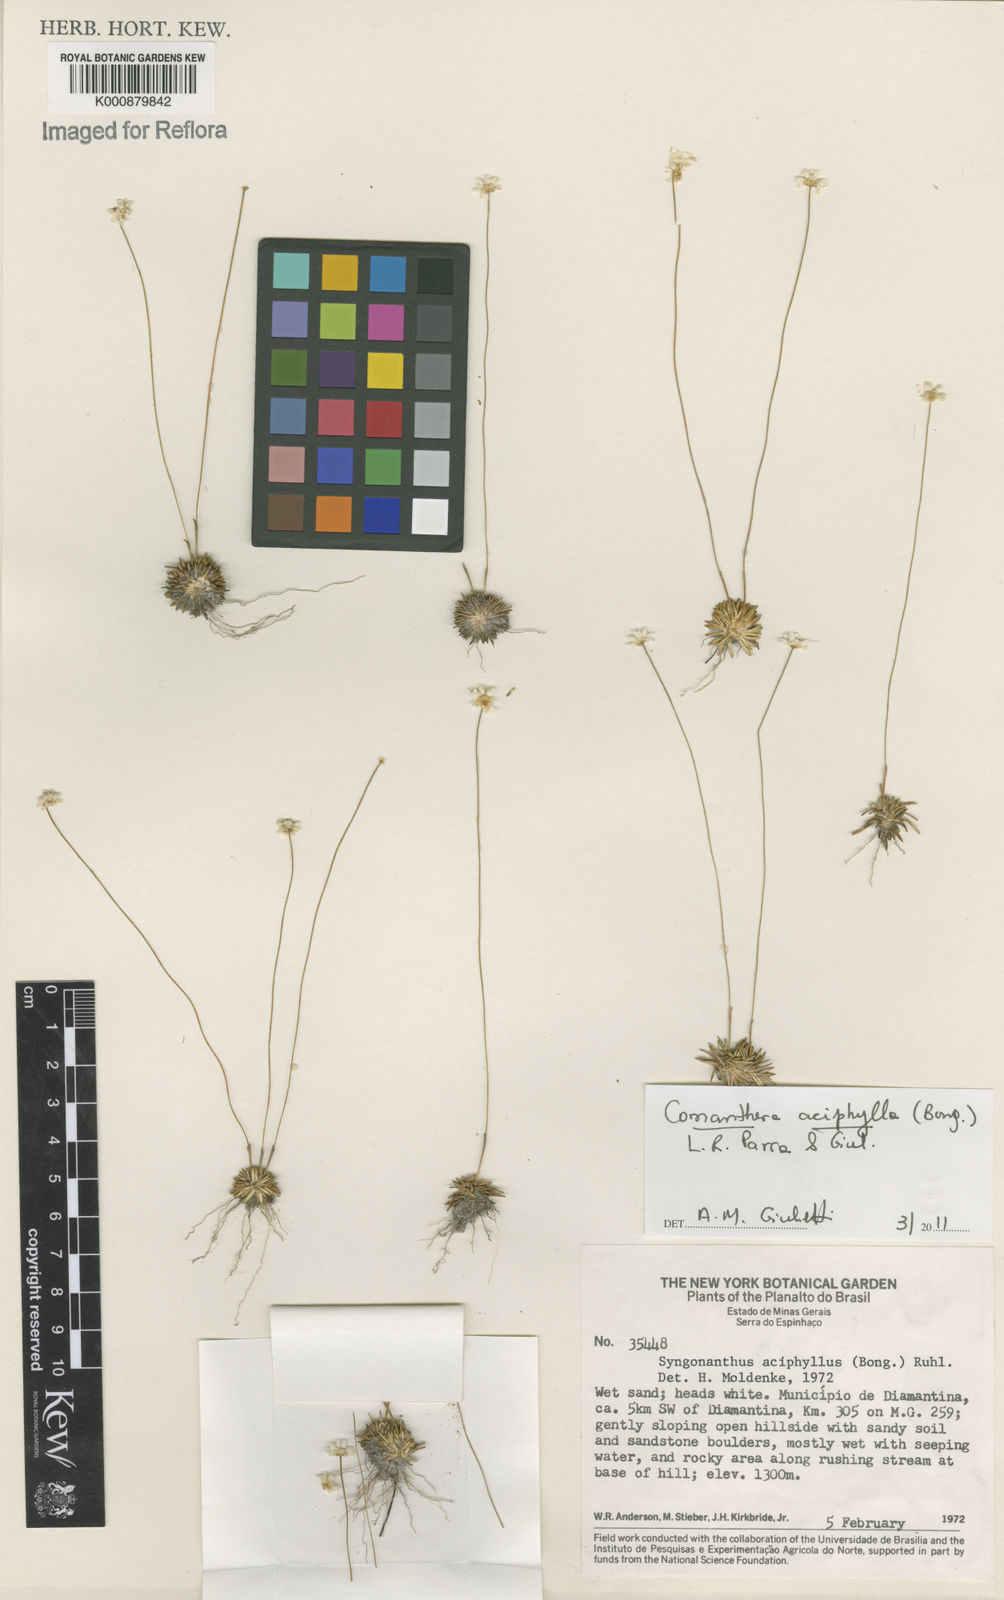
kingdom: Plantae
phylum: Tracheophyta
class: Liliopsida
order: Poales
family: Eriocaulaceae
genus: Comanthera
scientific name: Comanthera aciphylla
